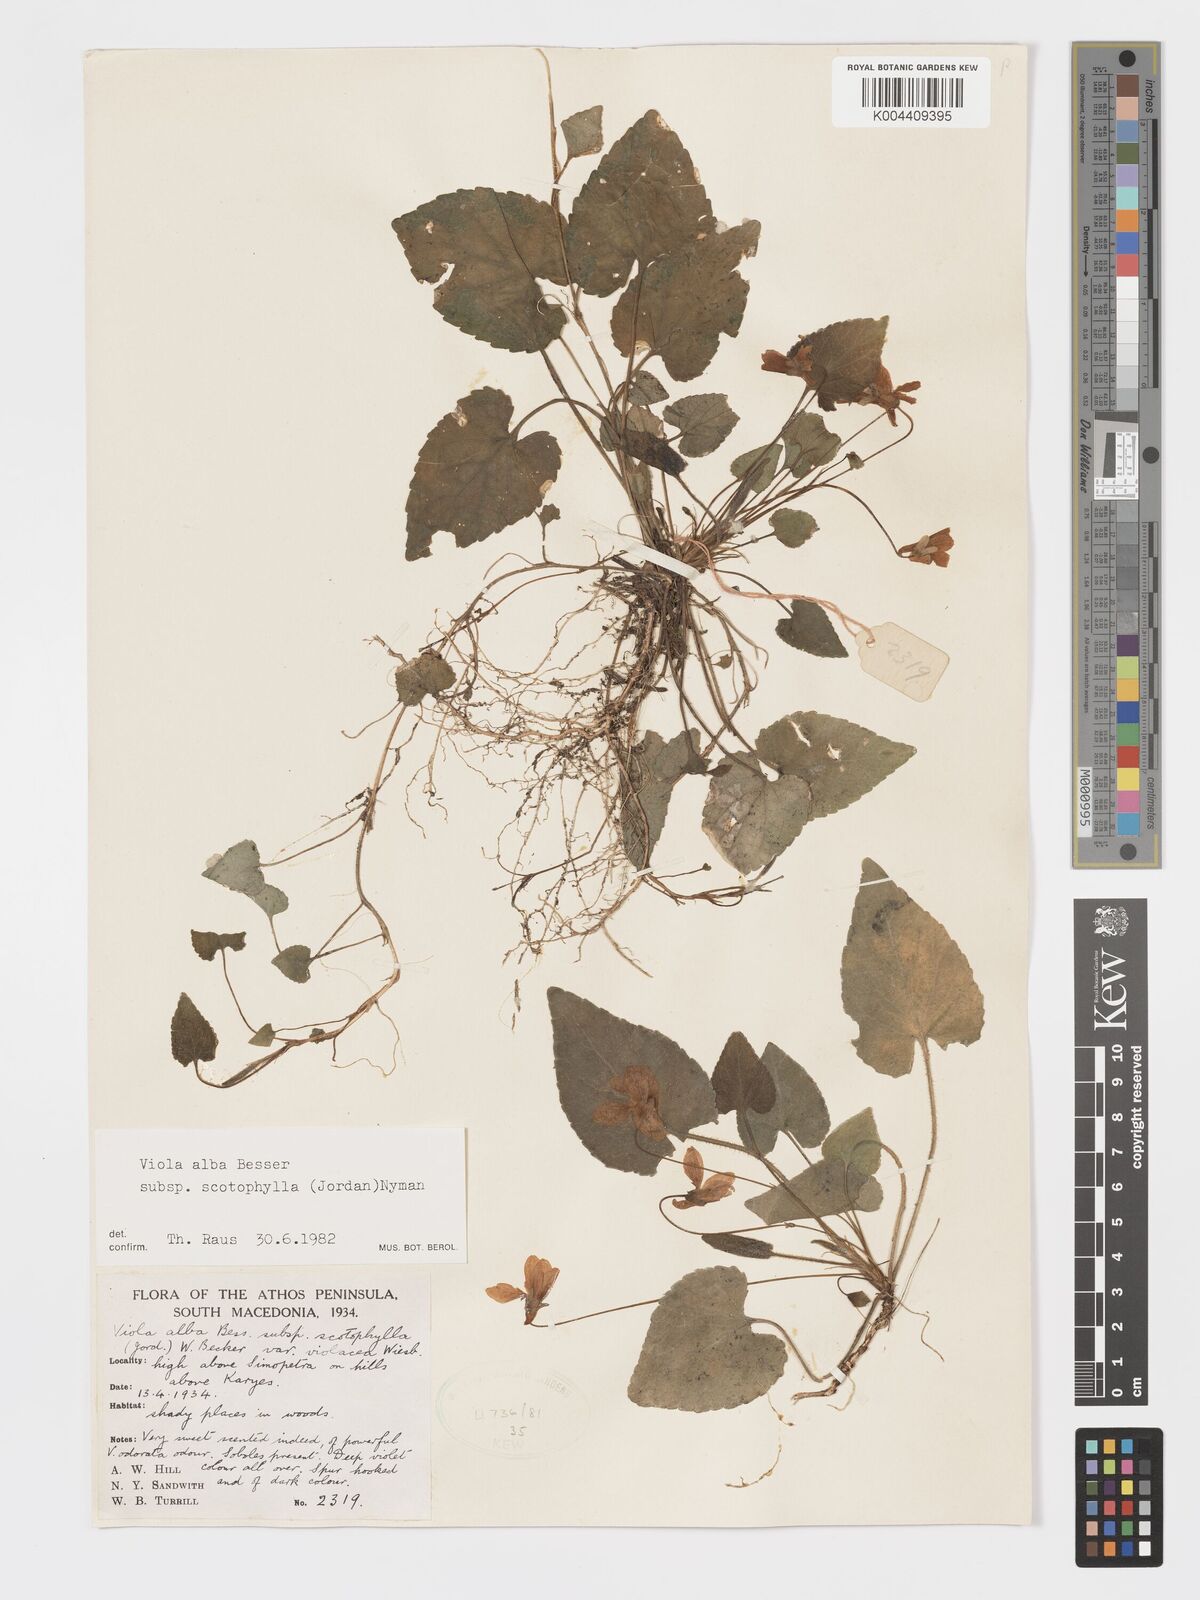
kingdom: Plantae
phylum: Tracheophyta
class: Magnoliopsida
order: Malpighiales
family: Violaceae
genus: Viola
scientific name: Viola alba
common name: White violet
